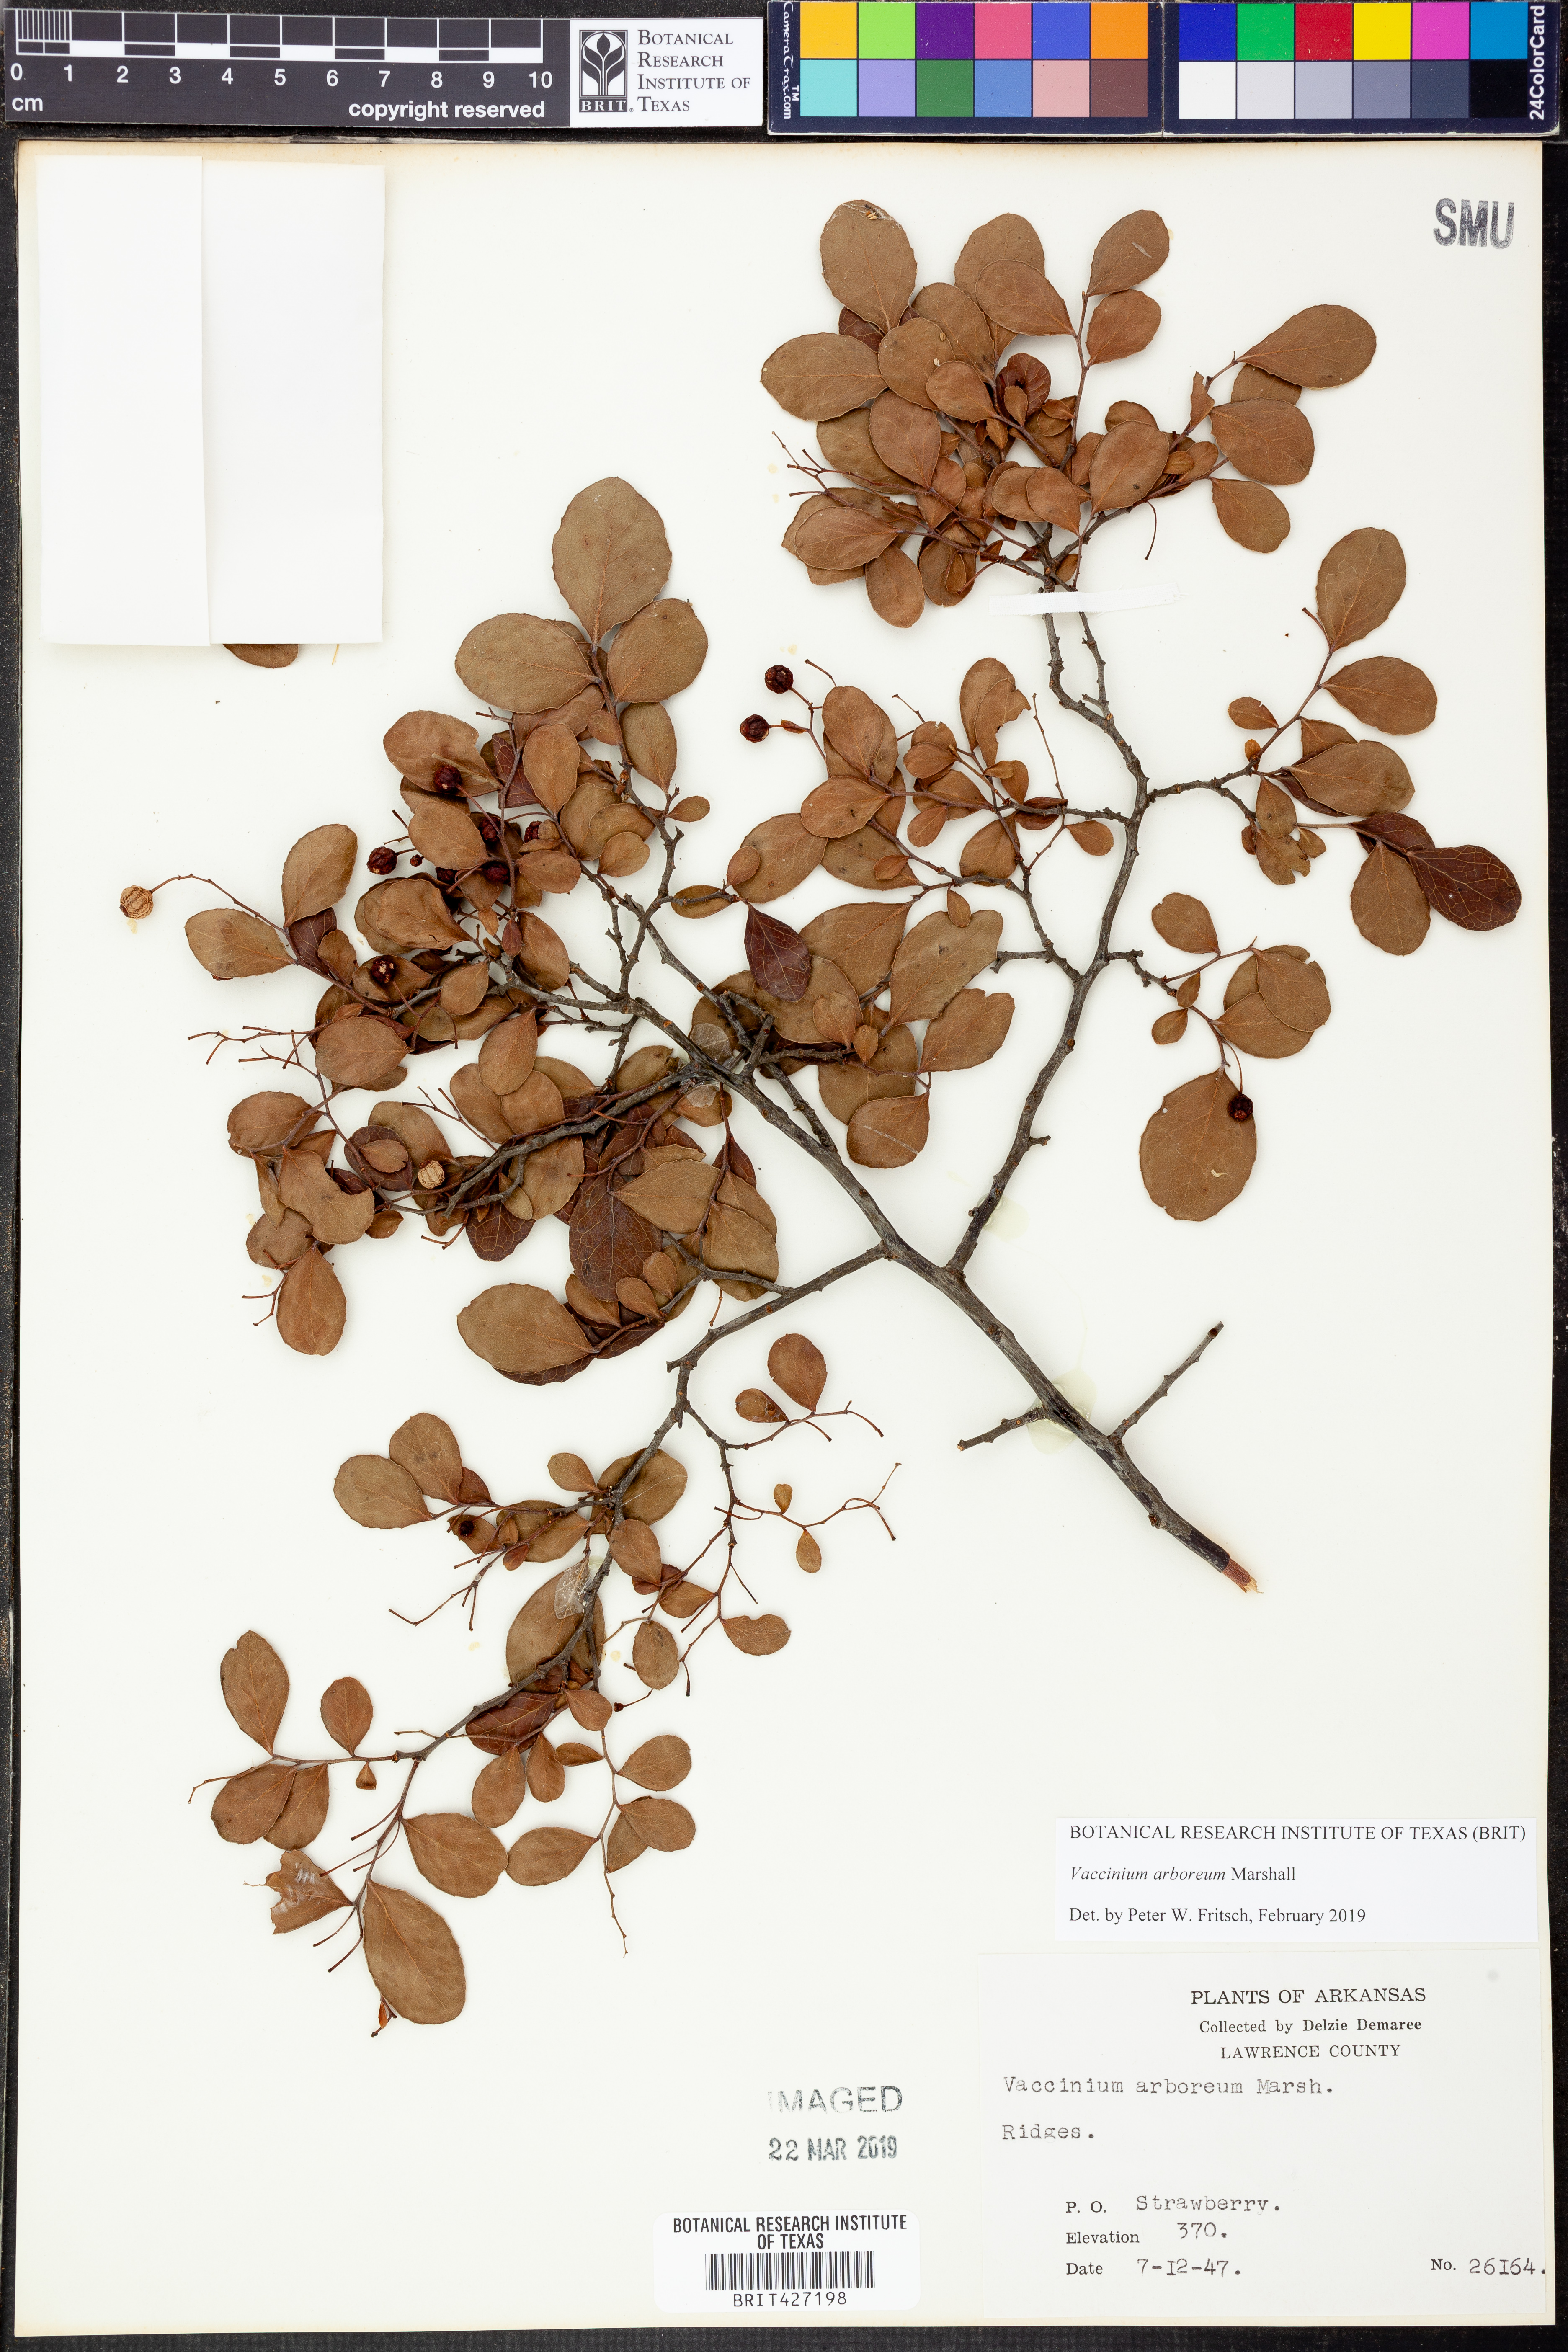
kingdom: Plantae
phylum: Tracheophyta
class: Magnoliopsida
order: Ericales
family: Ericaceae
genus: Vaccinium
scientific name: Vaccinium arboreum
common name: Farkleberry
